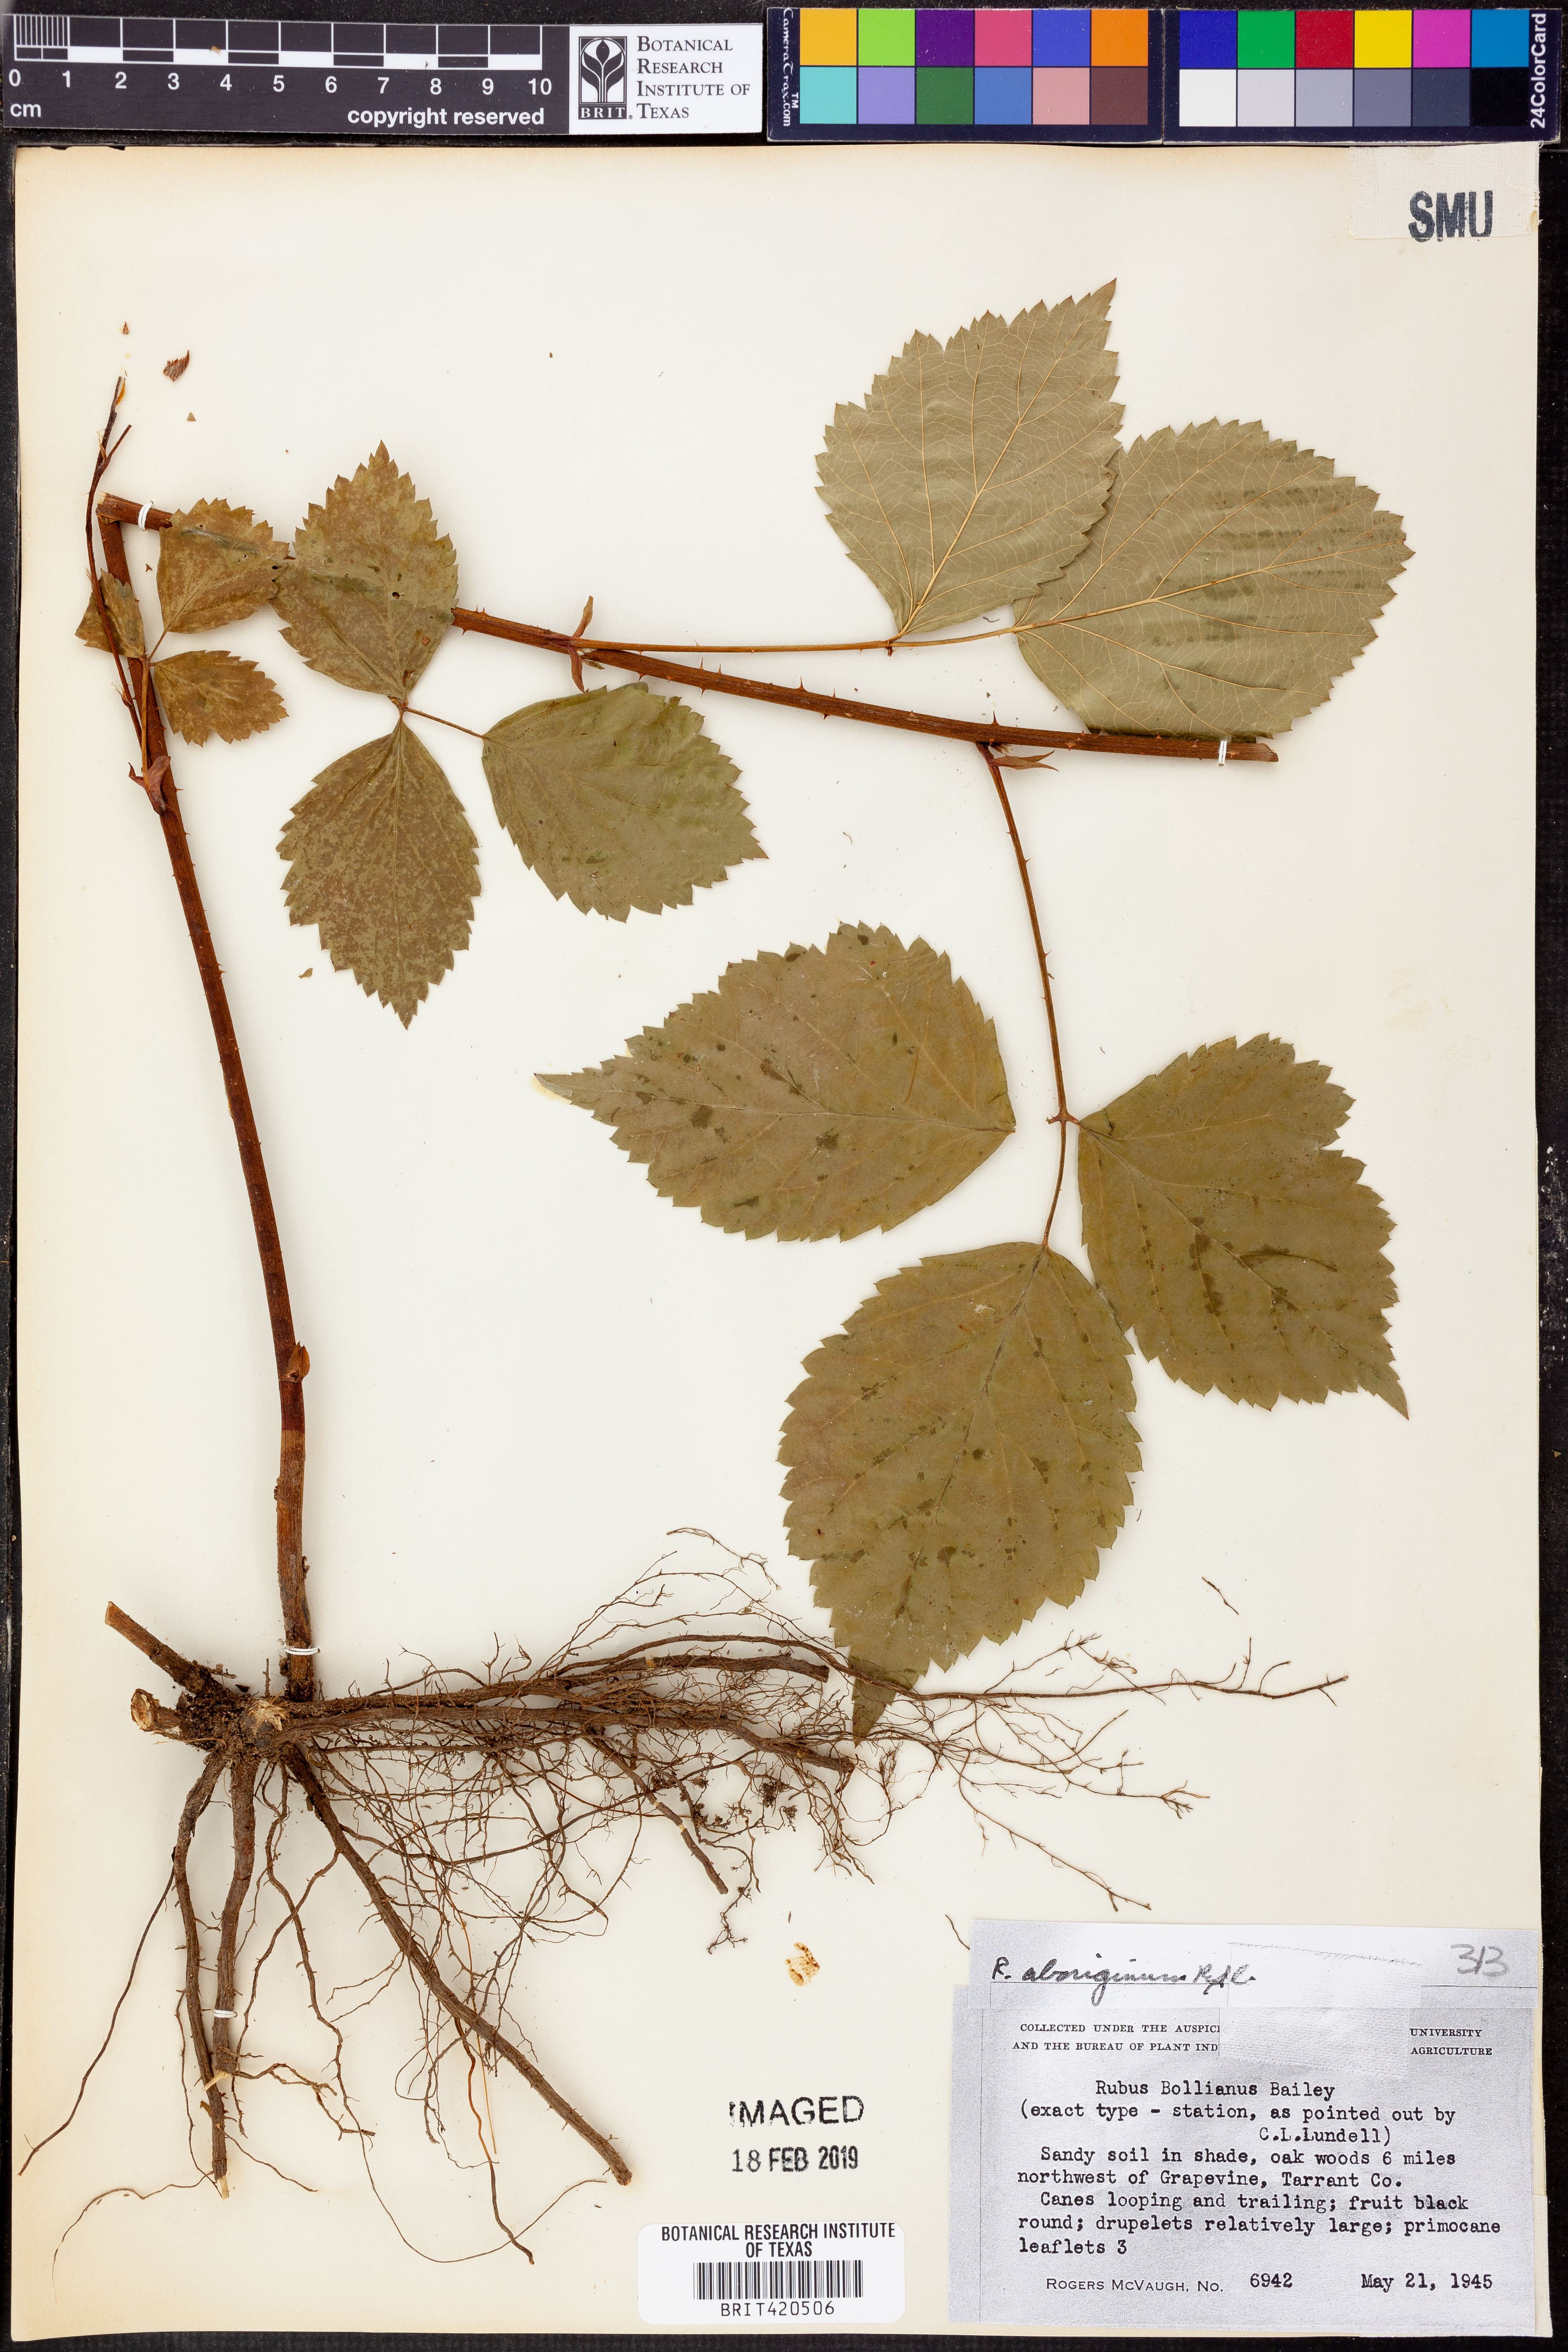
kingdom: Plantae
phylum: Tracheophyta
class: Magnoliopsida
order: Rosales
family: Rosaceae
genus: Rubus
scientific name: Rubus aboriginum
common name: Mayes dewberry
